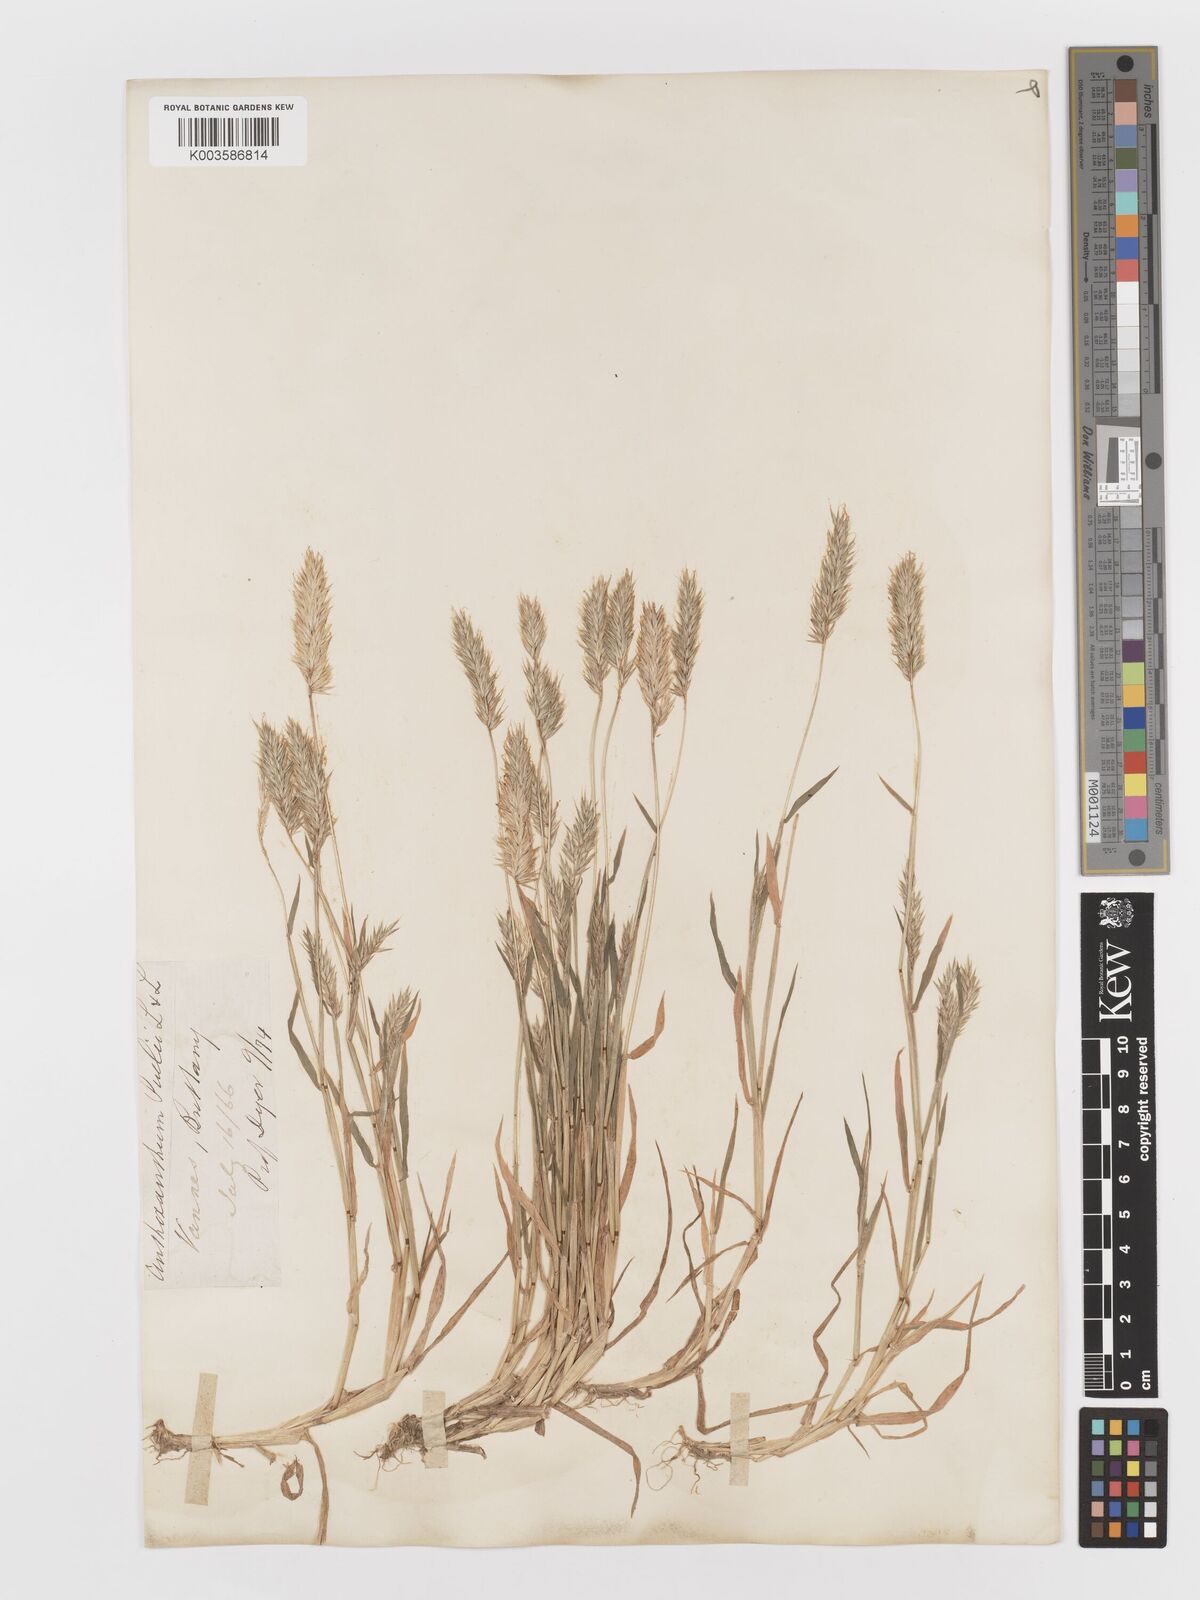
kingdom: Plantae
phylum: Tracheophyta
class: Liliopsida
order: Poales
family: Poaceae
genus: Anthoxanthum
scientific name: Anthoxanthum
